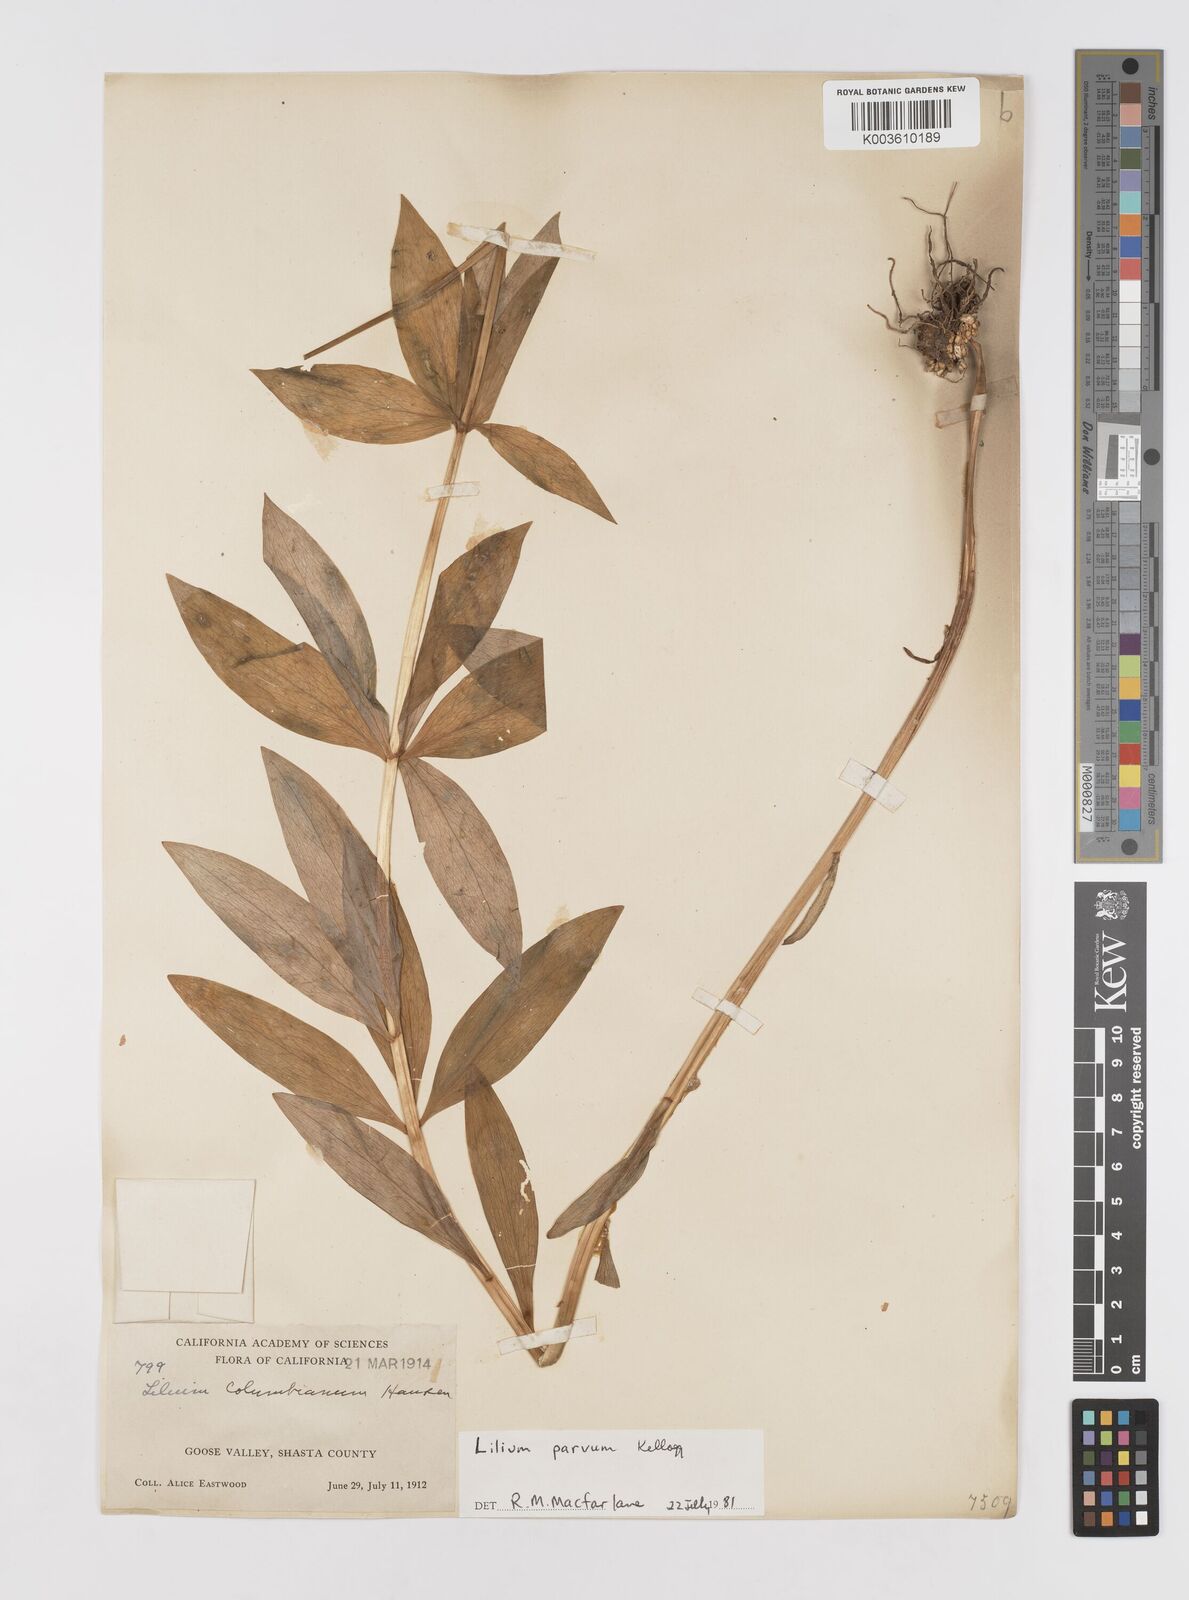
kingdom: Plantae
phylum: Tracheophyta
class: Liliopsida
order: Liliales
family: Liliaceae
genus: Lilium
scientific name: Lilium parvum
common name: Alpine lily
